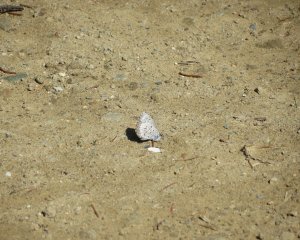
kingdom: Animalia
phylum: Arthropoda
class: Insecta
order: Lepidoptera
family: Lycaenidae
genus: Celastrina
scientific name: Celastrina lucia
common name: Northern Spring Azure
